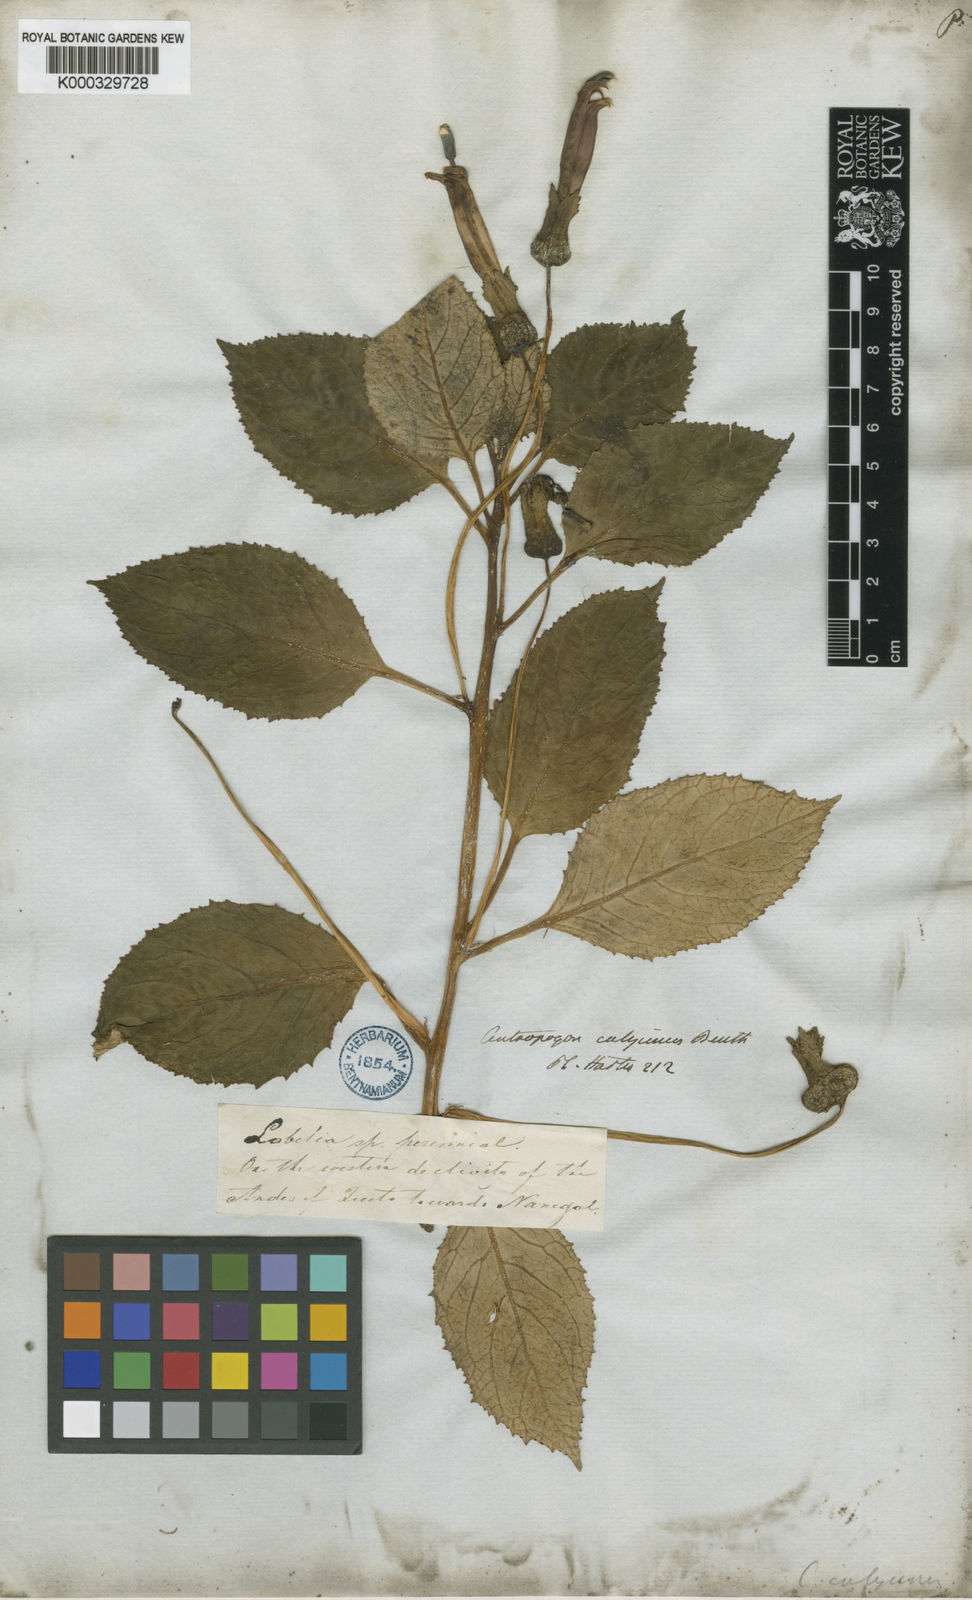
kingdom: Plantae
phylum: Tracheophyta
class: Magnoliopsida
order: Asterales
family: Campanulaceae
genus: Centropogon
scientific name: Centropogon calycinus
